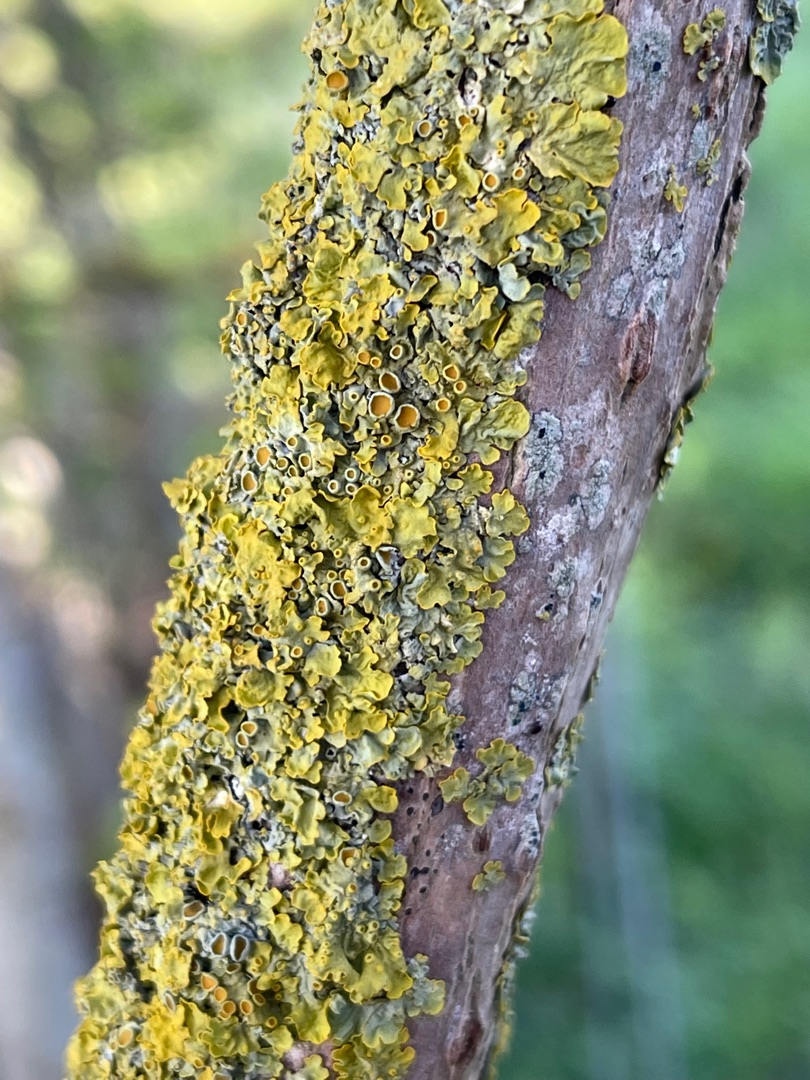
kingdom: Fungi
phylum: Ascomycota
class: Lecanoromycetes
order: Teloschistales
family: Teloschistaceae
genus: Xanthoria
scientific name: Xanthoria parietina
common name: Almindelig væggelav
